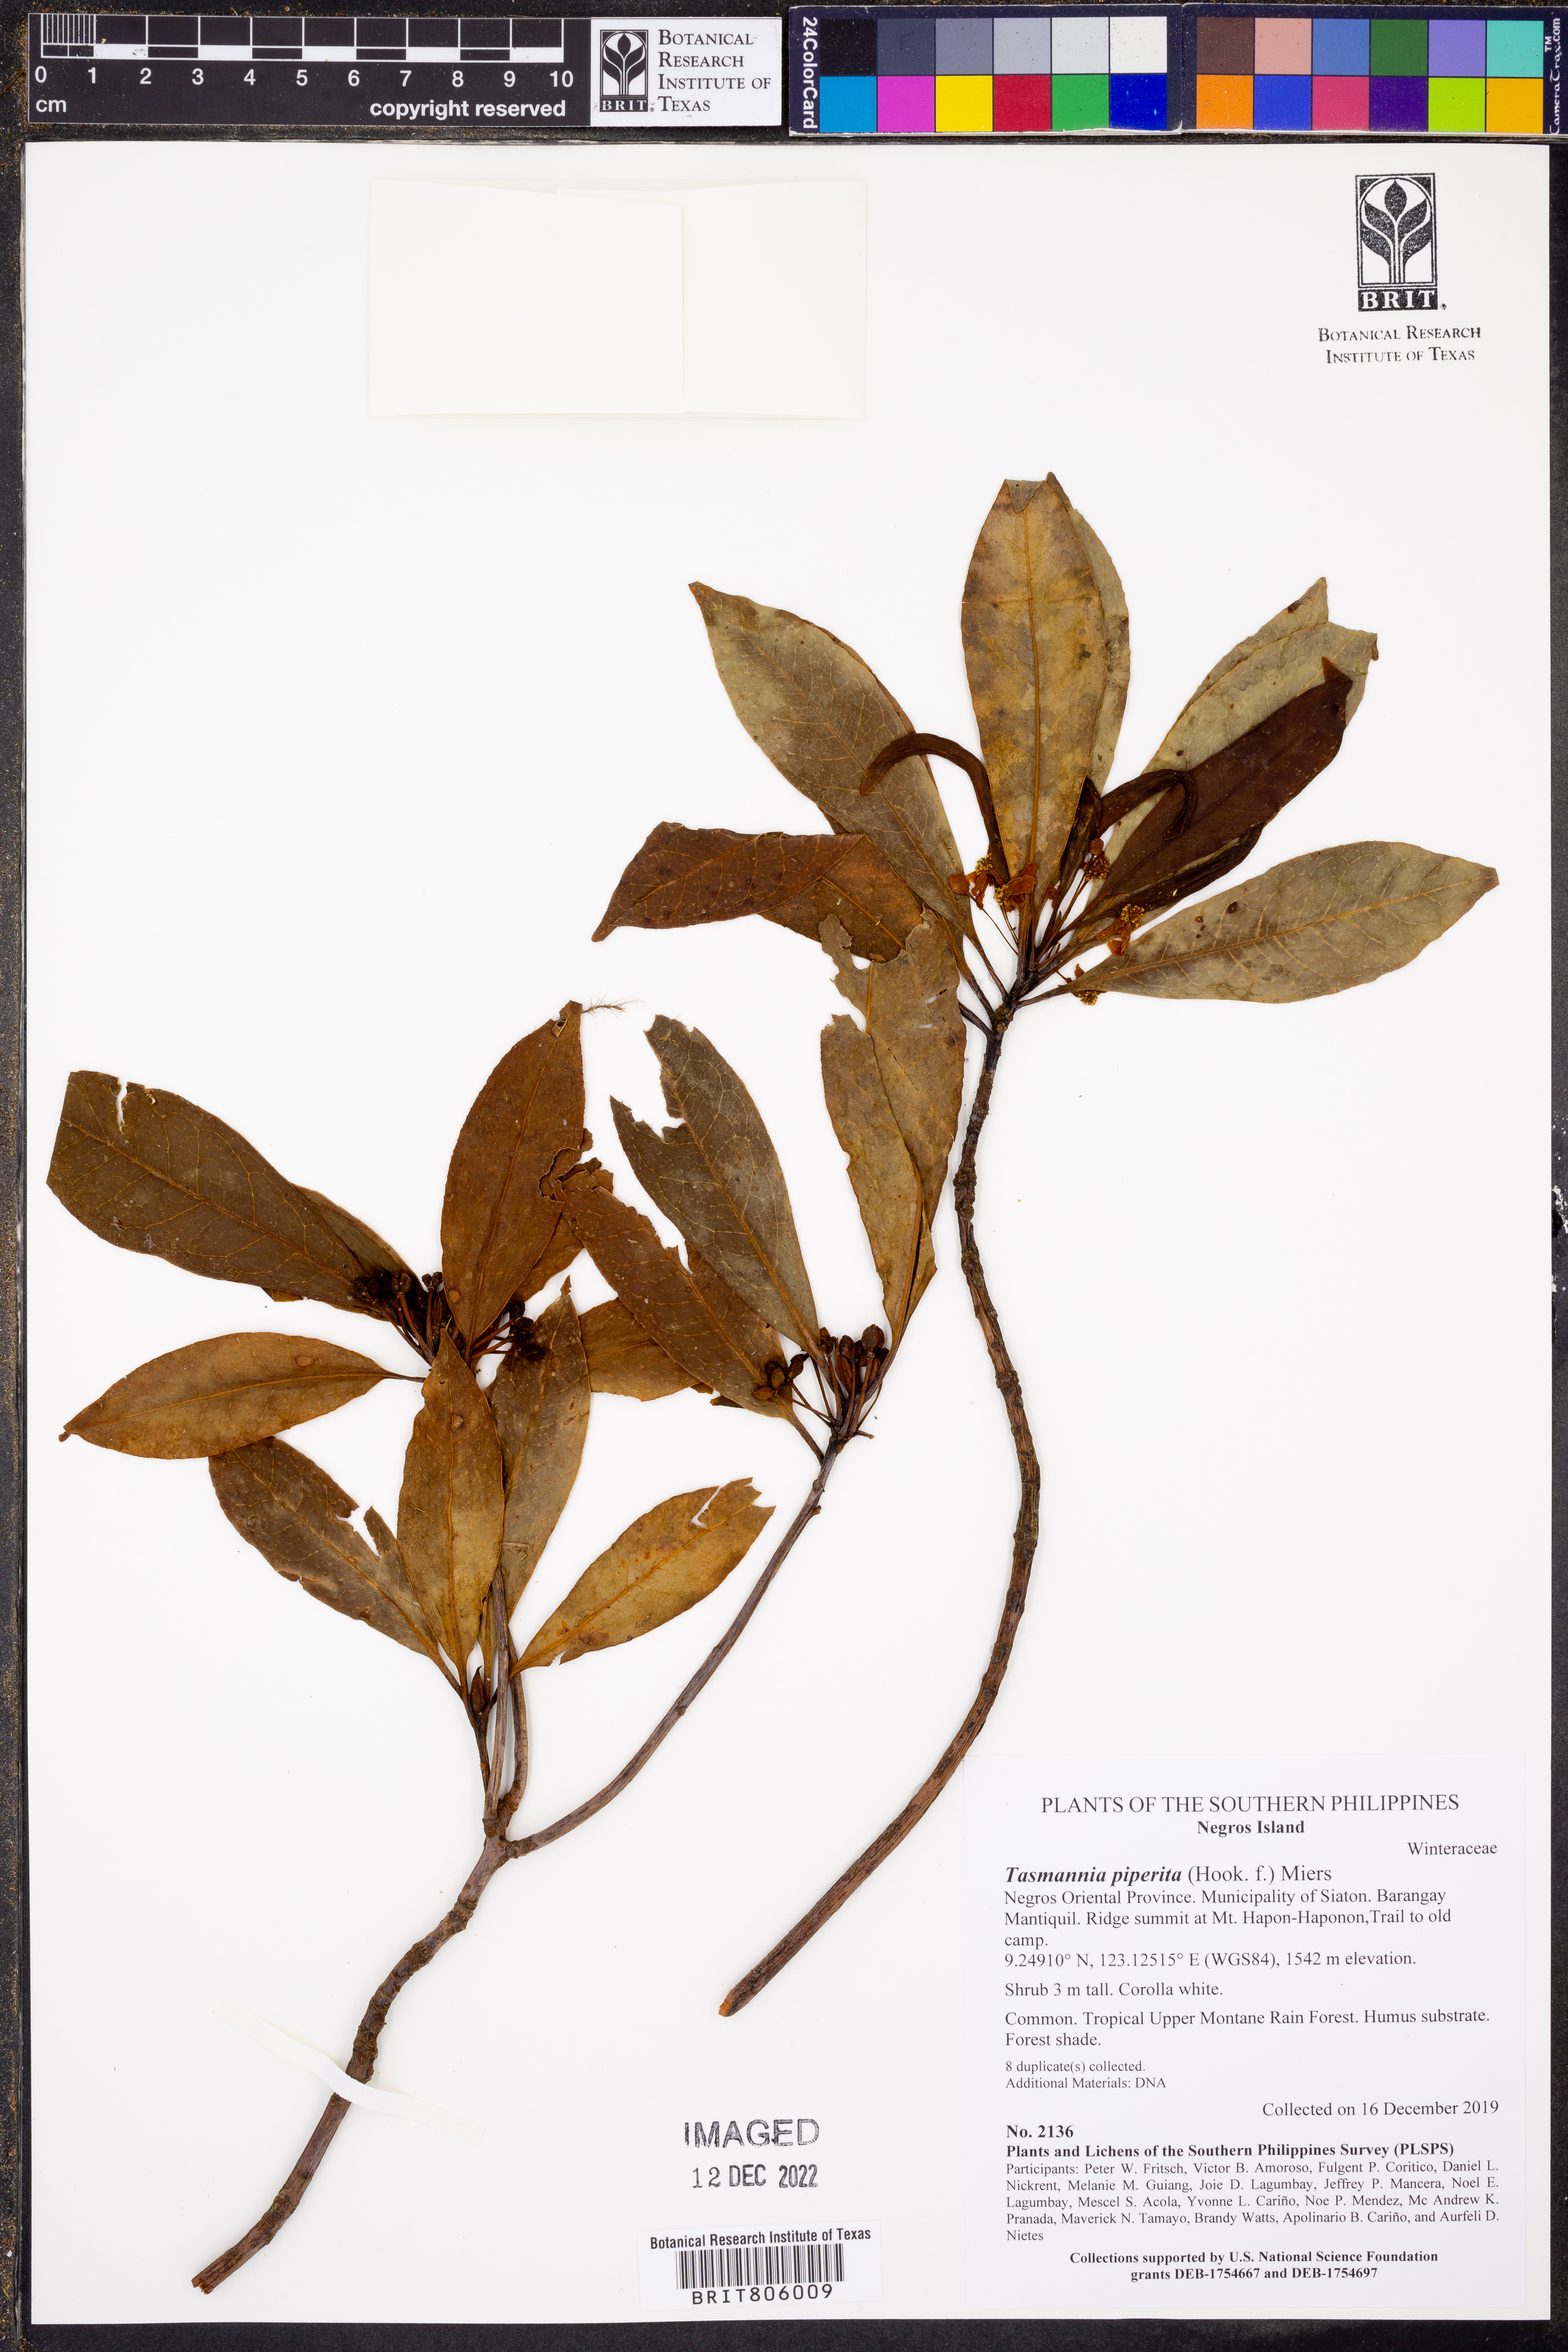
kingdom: Plantae
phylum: Tracheophyta
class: Magnoliopsida
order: Canellales
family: Winteraceae
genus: Drimys
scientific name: Drimys piperita
